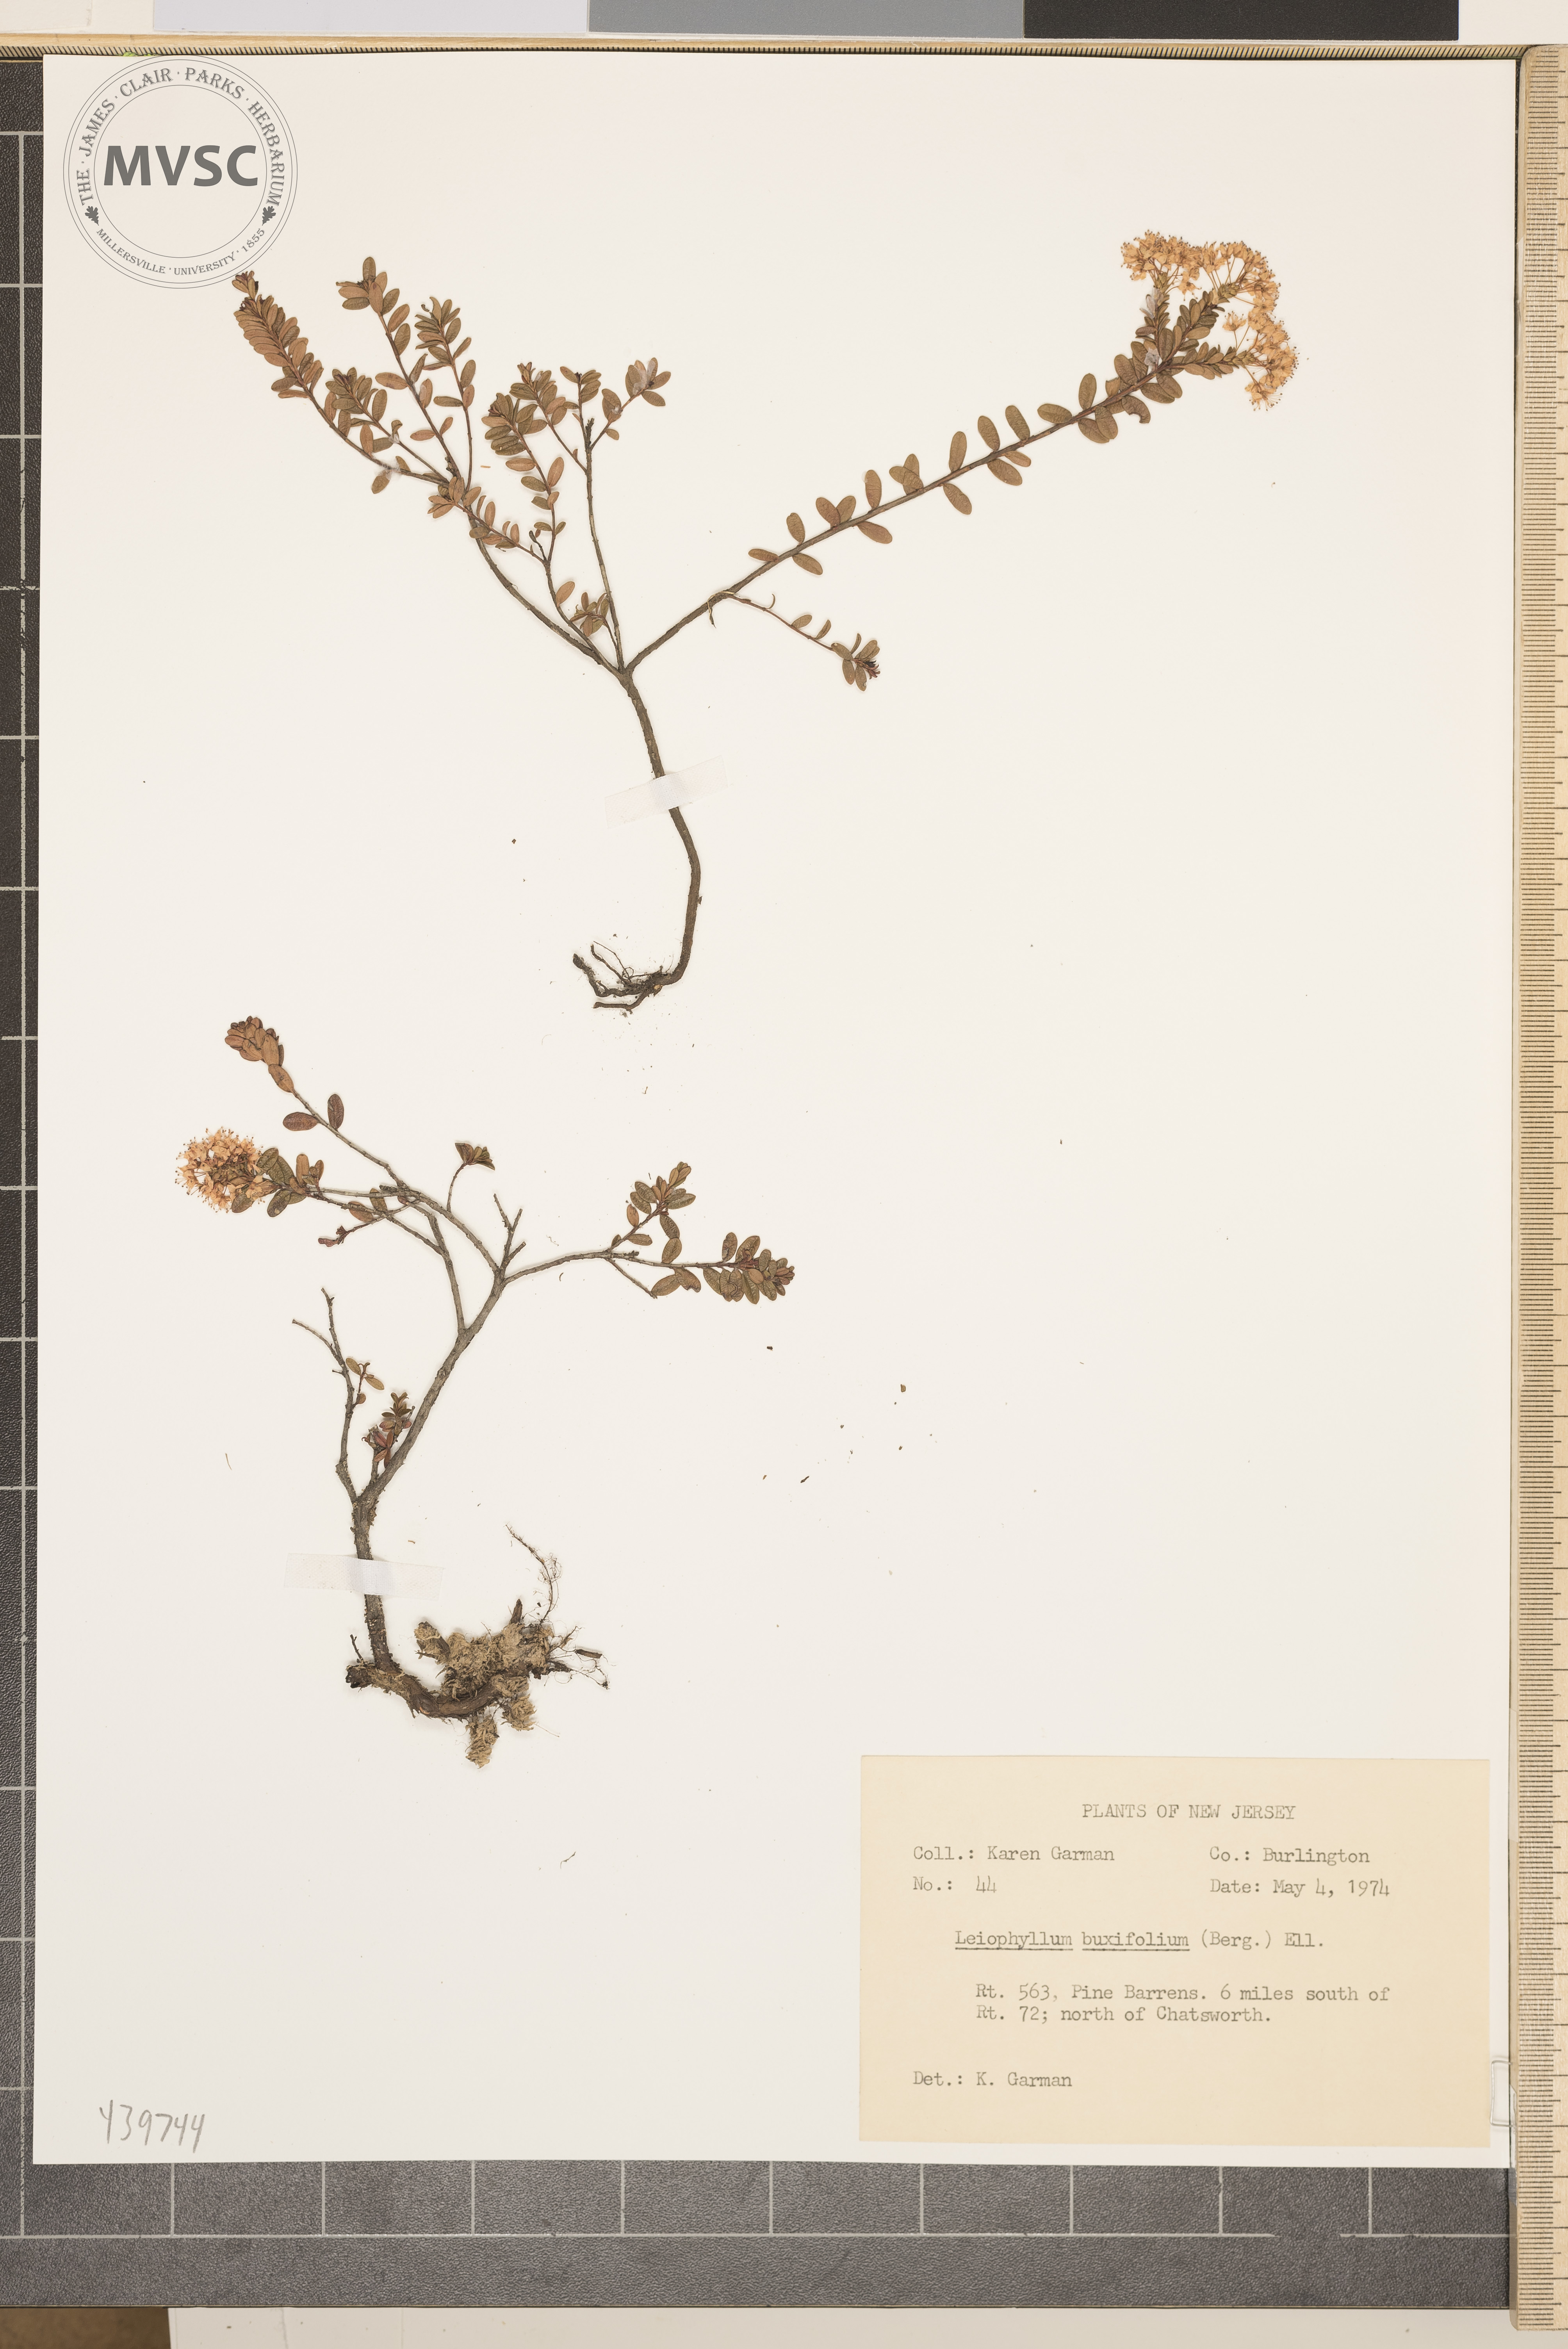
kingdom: Plantae
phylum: Tracheophyta
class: Magnoliopsida
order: Ericales
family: Ericaceae
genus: Kalmia
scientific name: Kalmia buxifolia
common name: Sandmyrtle
